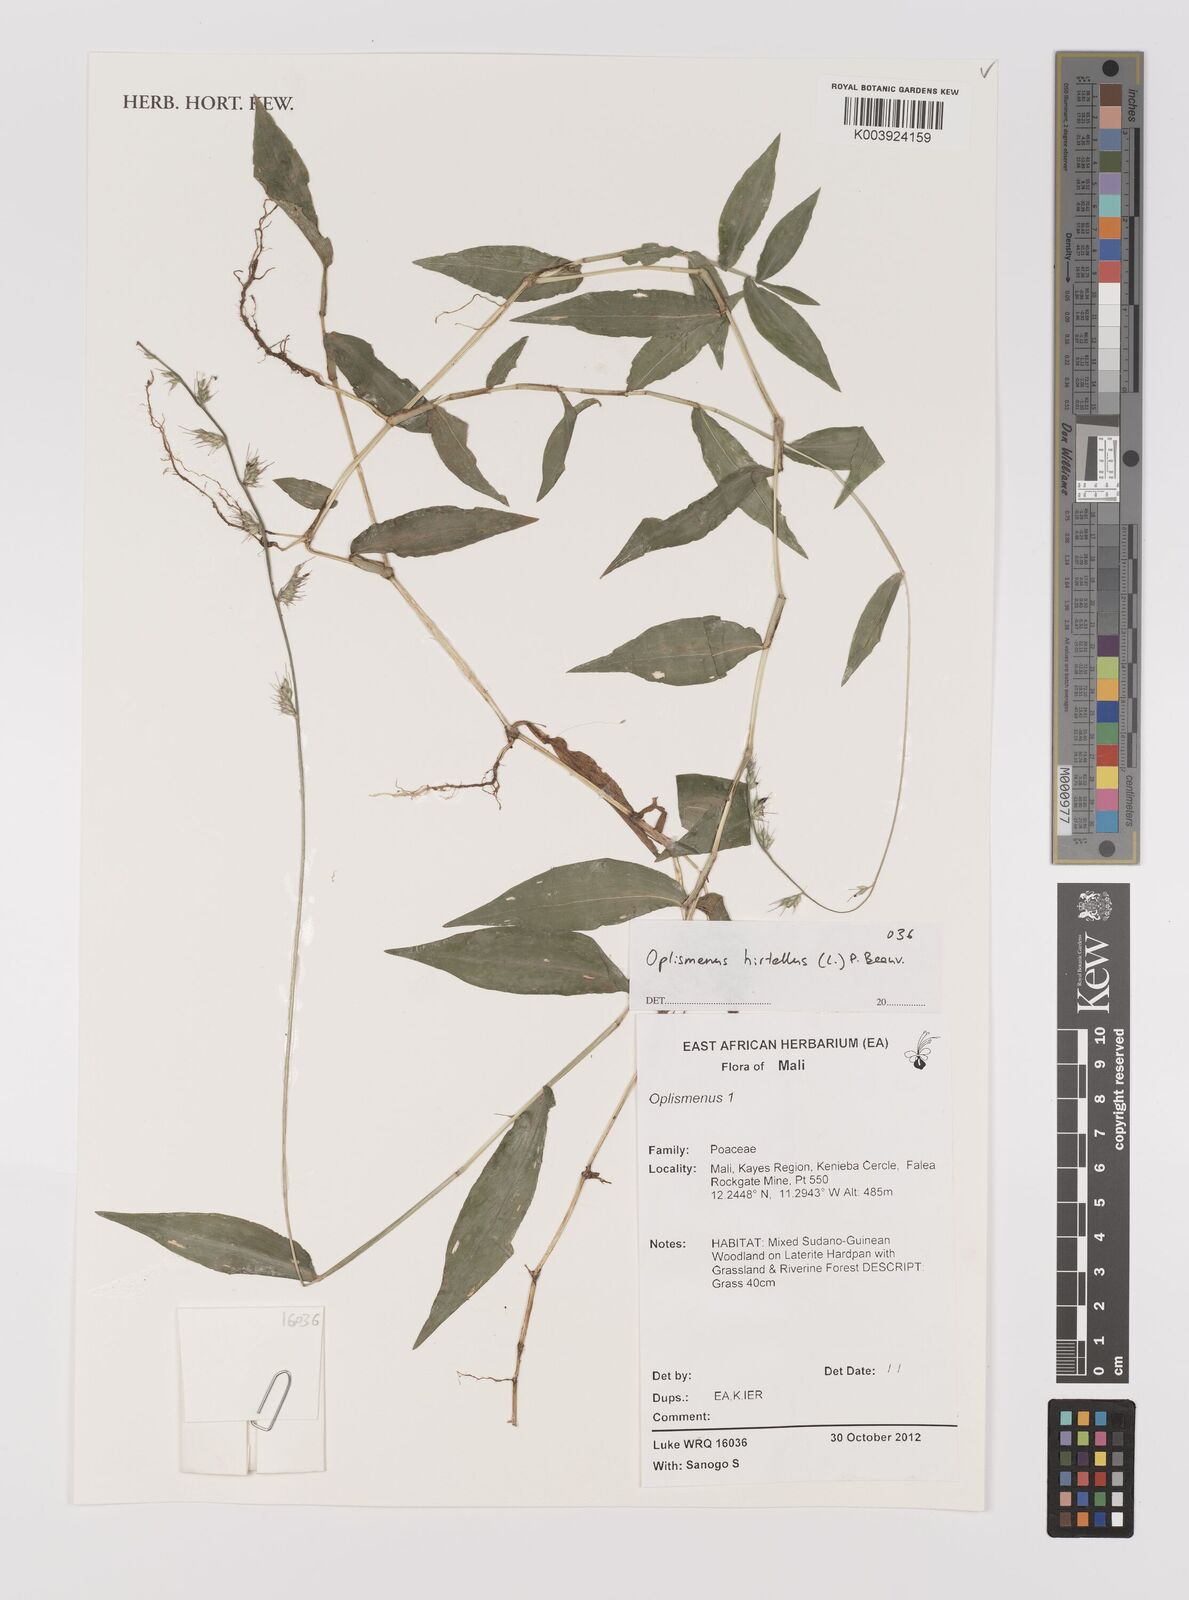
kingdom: Plantae
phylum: Tracheophyta
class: Liliopsida
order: Poales
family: Poaceae
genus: Oplismenus
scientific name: Oplismenus hirtellus
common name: Basketgrass
